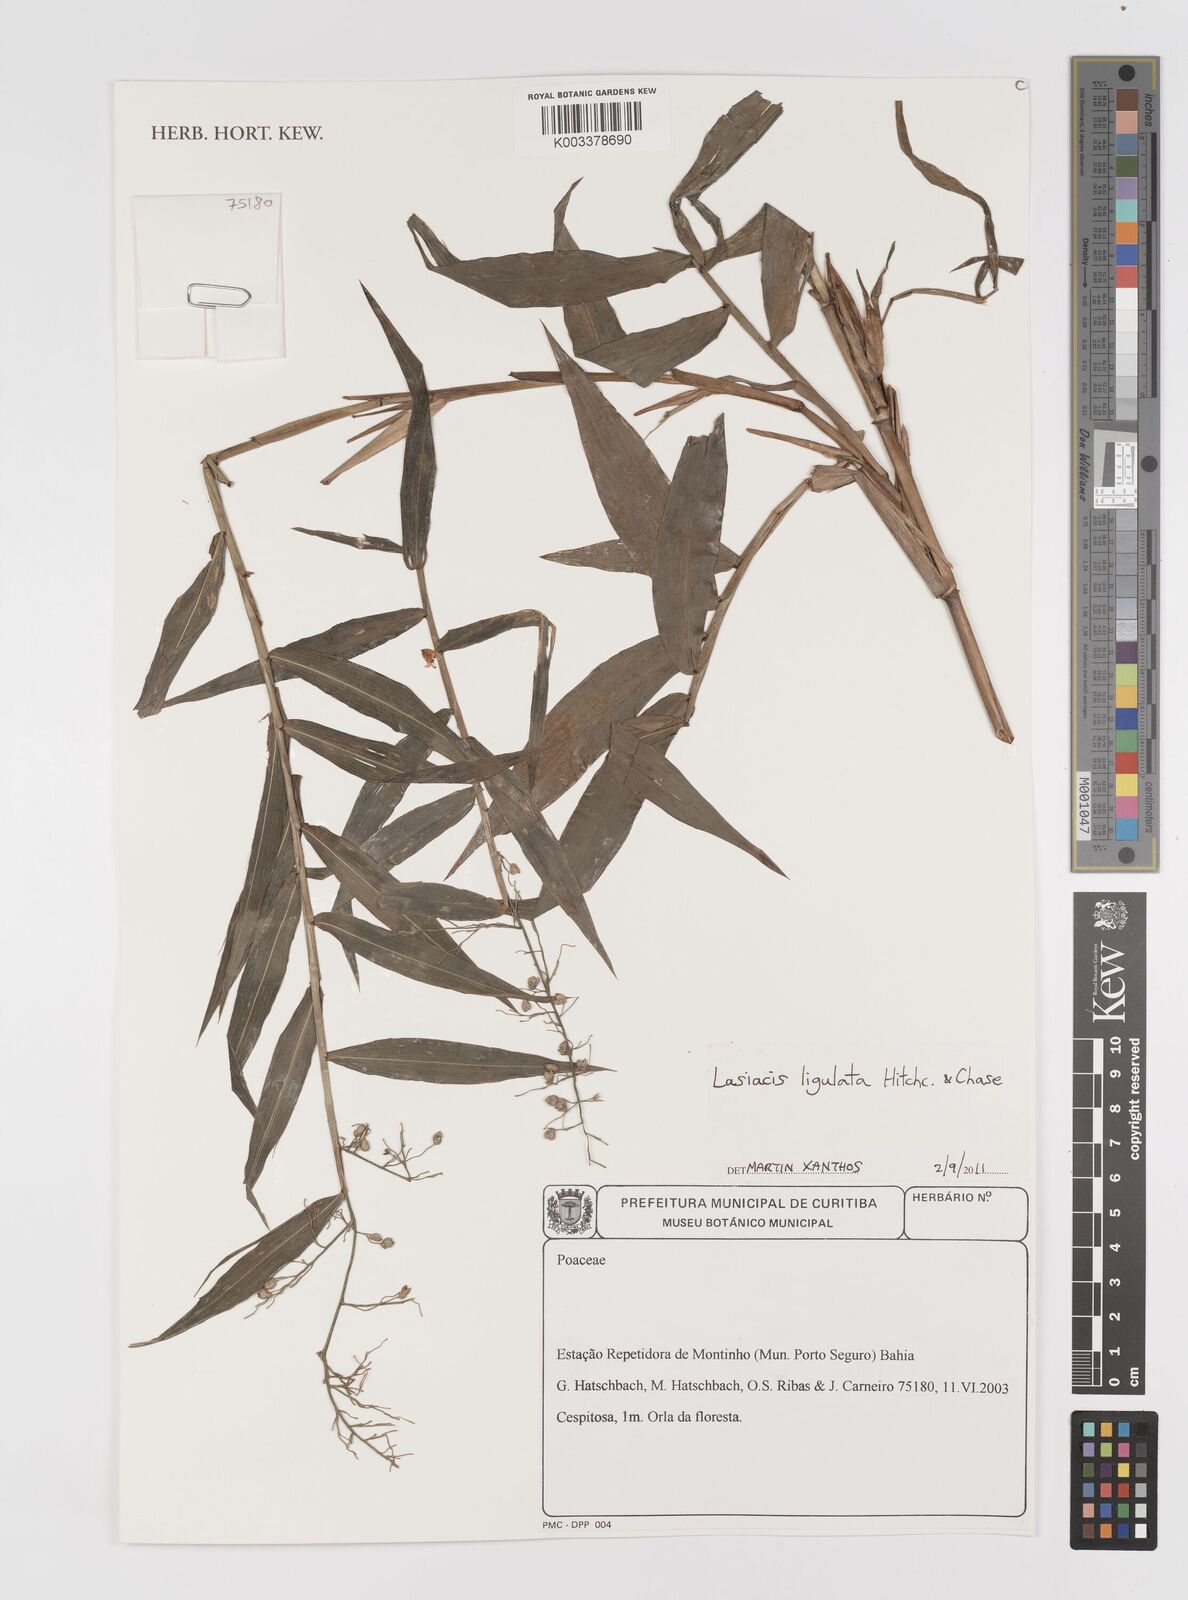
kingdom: Plantae
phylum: Tracheophyta
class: Liliopsida
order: Poales
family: Poaceae
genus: Lasiacis
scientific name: Lasiacis ligulata
